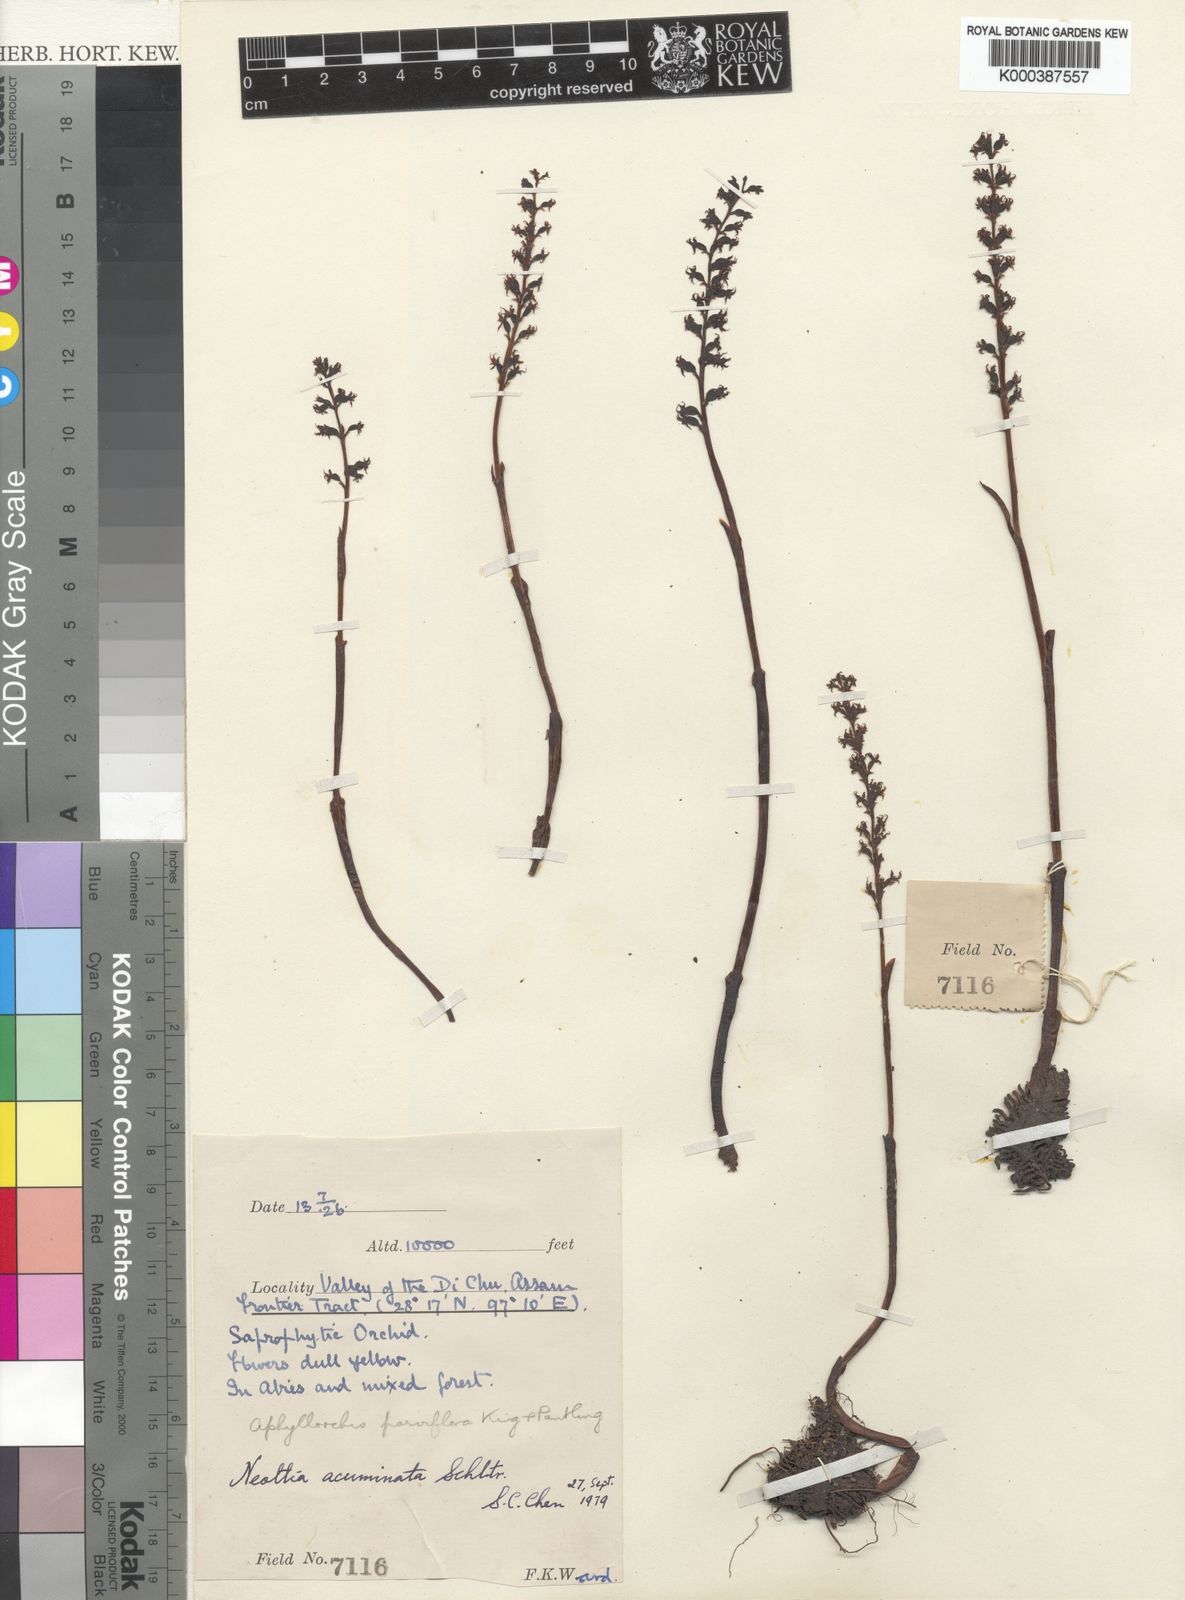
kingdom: Plantae
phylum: Tracheophyta
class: Liliopsida
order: Asparagales
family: Orchidaceae
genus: Spiranthes
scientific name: Spiranthes australis
